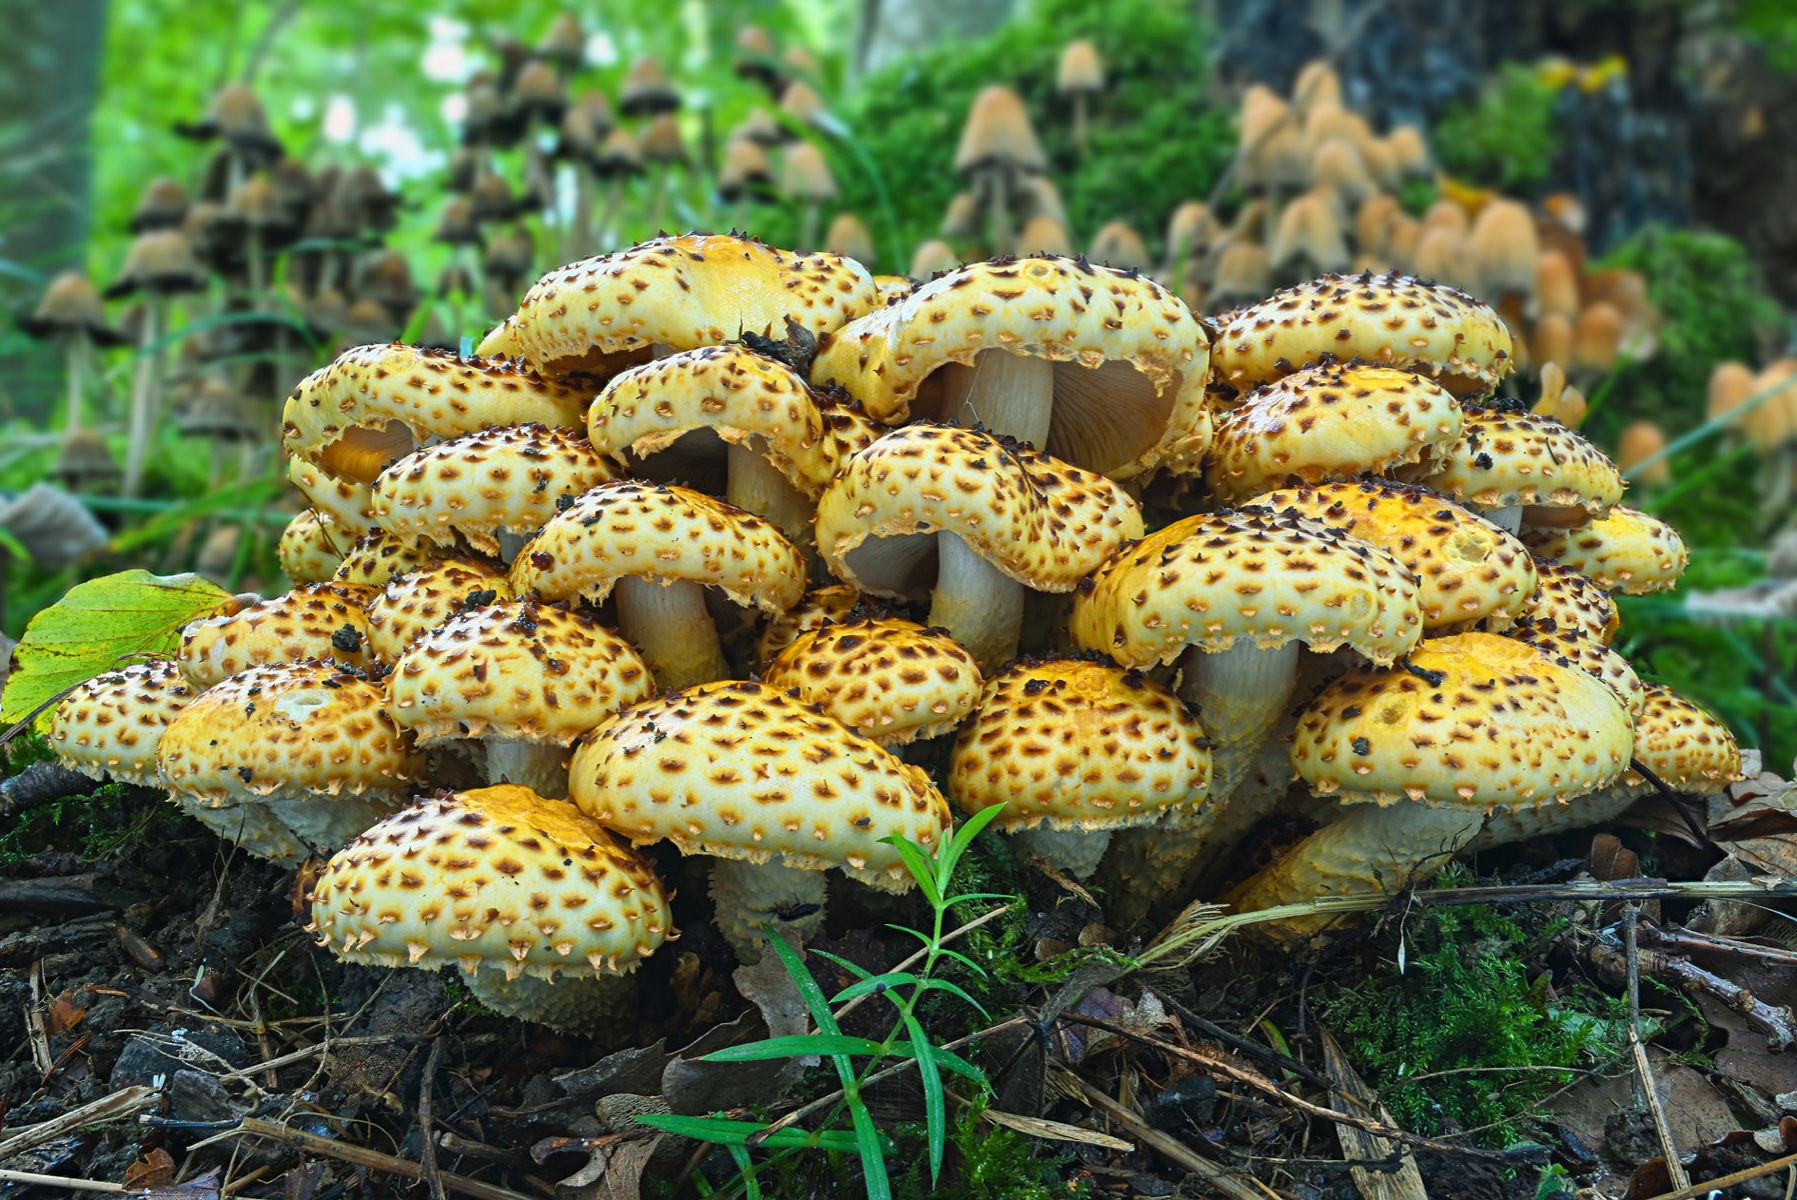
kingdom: Fungi
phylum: Basidiomycota
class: Agaricomycetes
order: Agaricales
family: Strophariaceae
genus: Pholiota
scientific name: Pholiota jahnii
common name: slimet skælhat
